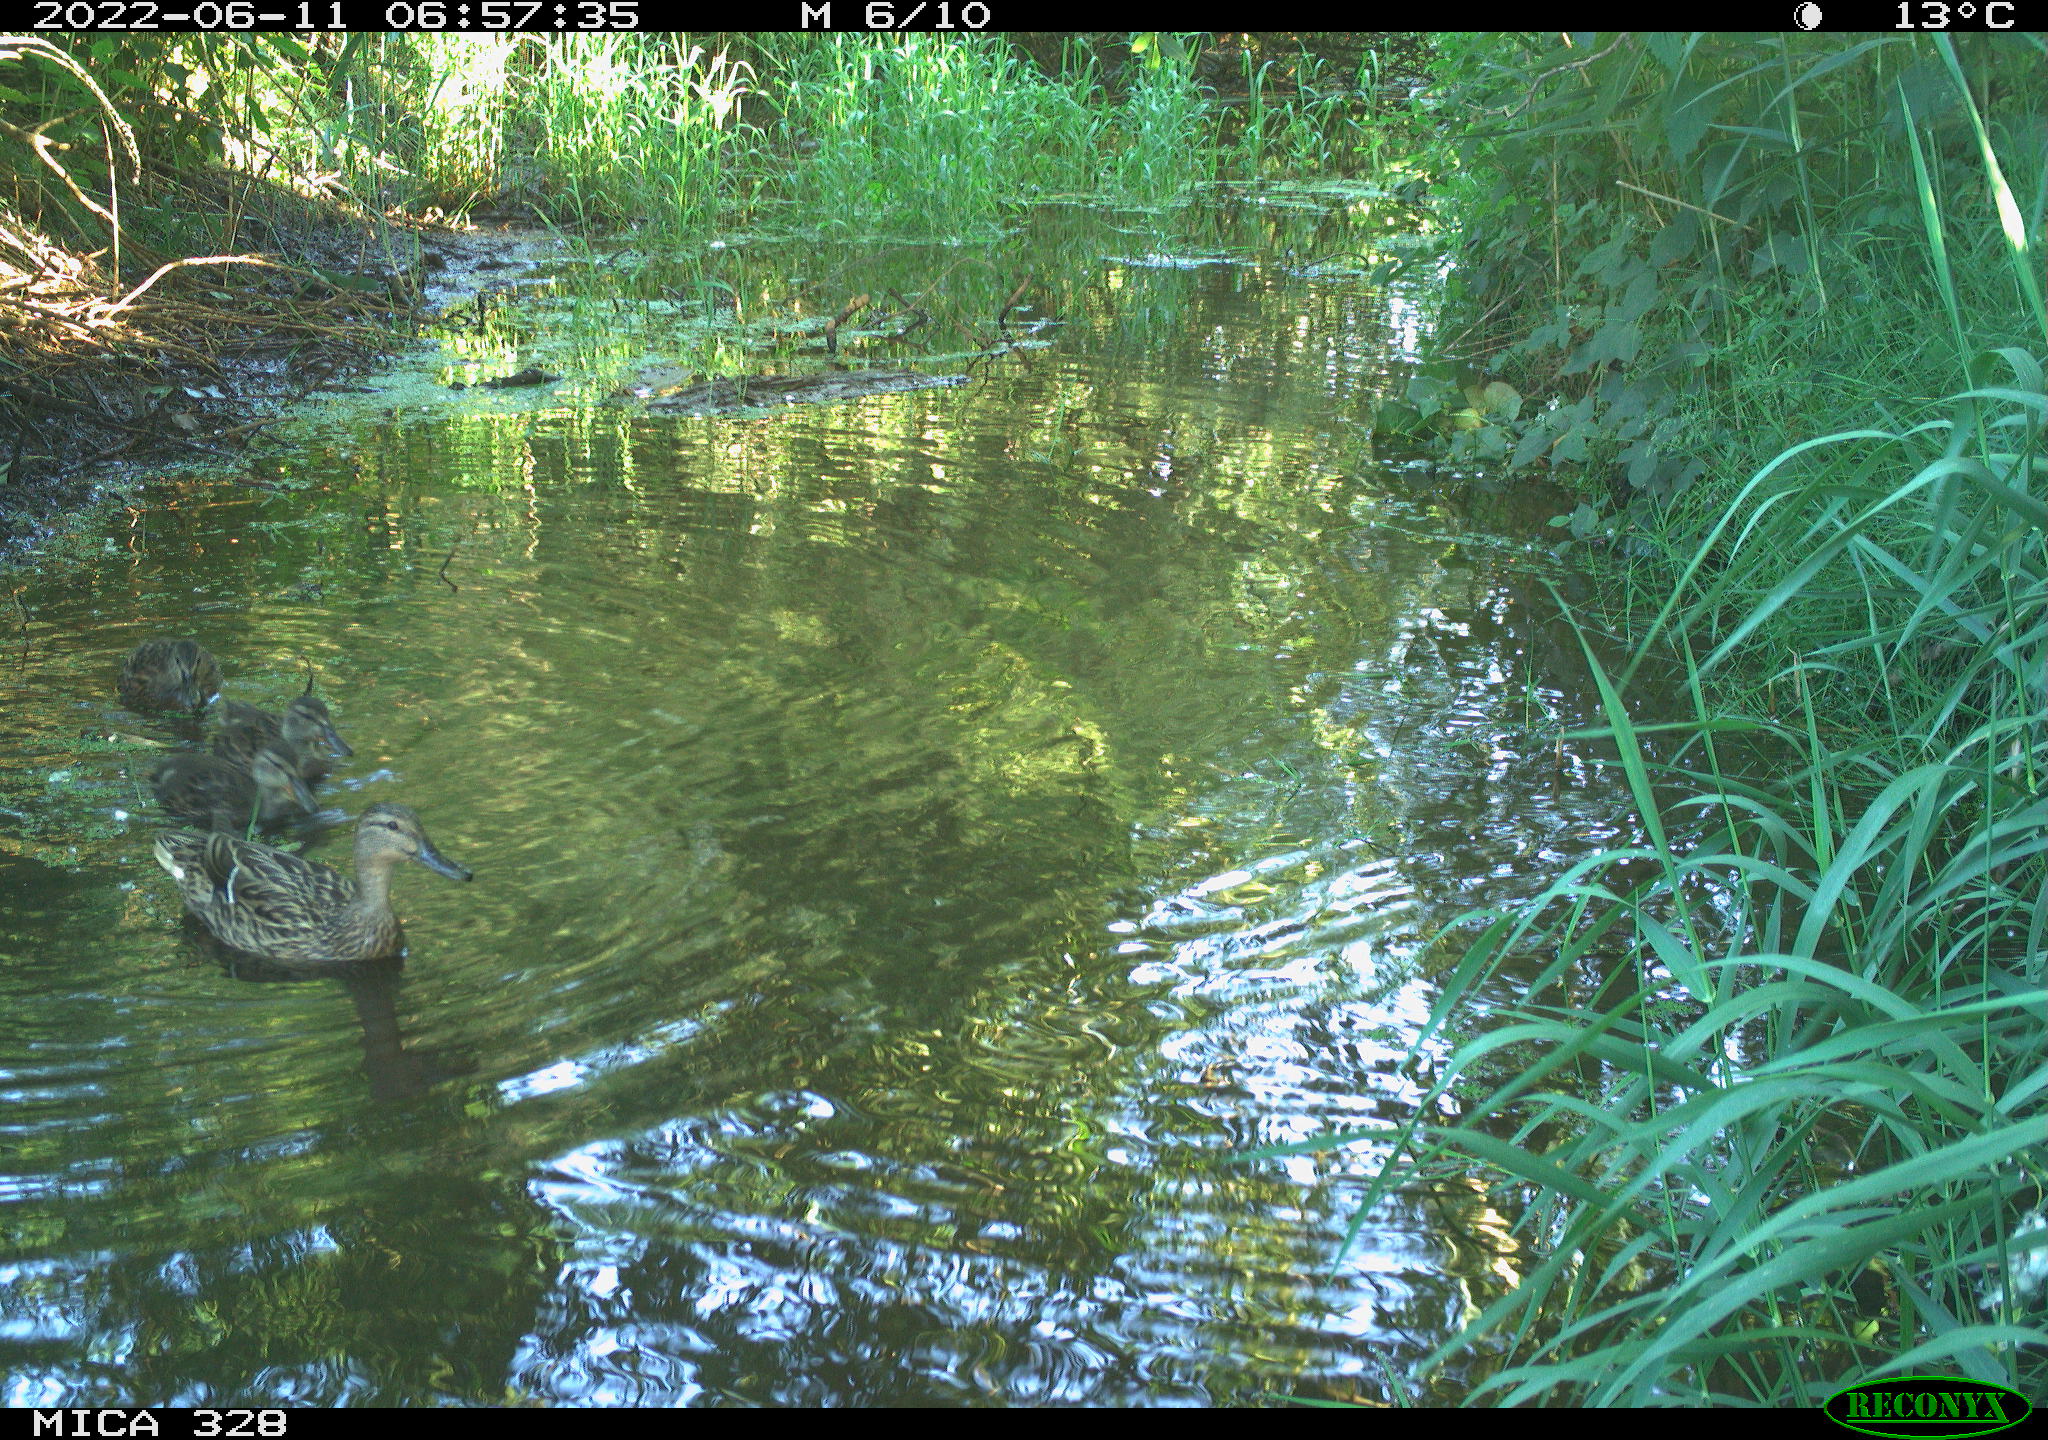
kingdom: Animalia
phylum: Chordata
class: Aves
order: Anseriformes
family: Anatidae
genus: Anas
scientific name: Anas
